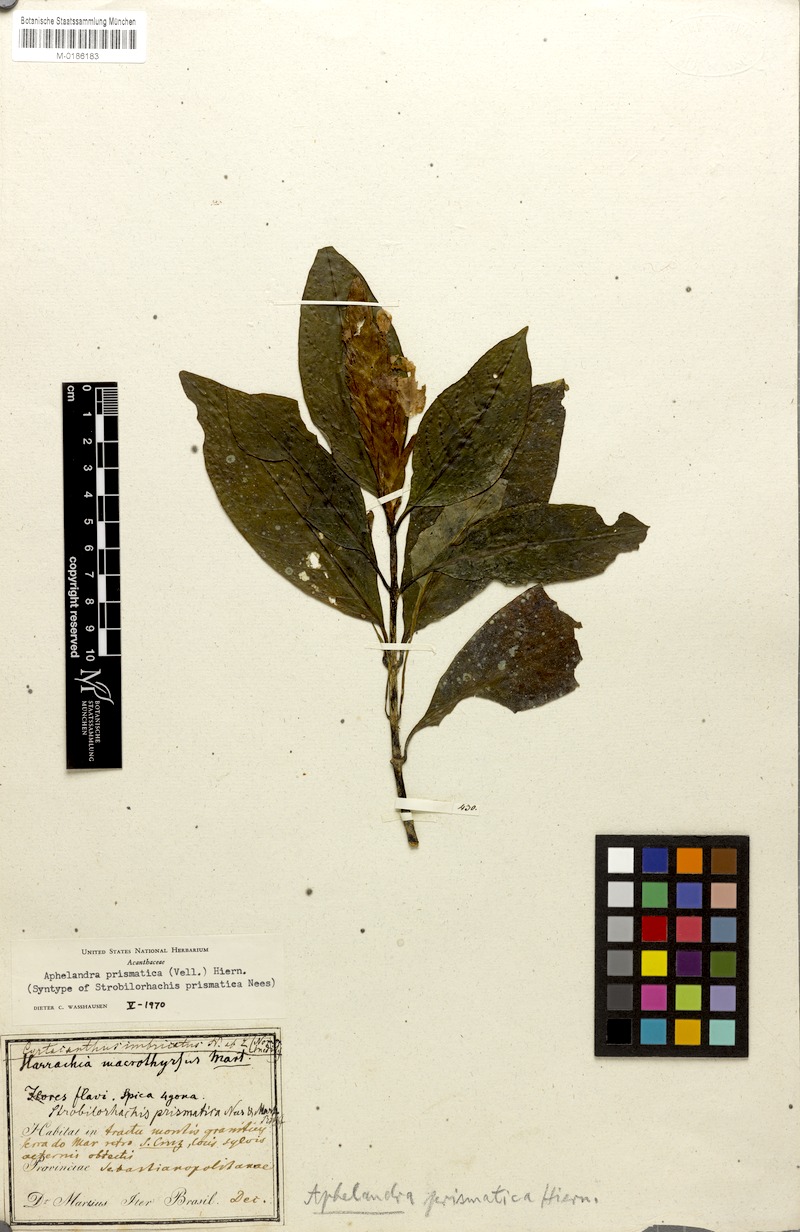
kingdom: Plantae
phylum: Tracheophyta
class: Magnoliopsida
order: Lamiales
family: Acanthaceae
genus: Aphelandra
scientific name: Aphelandra prismatica
